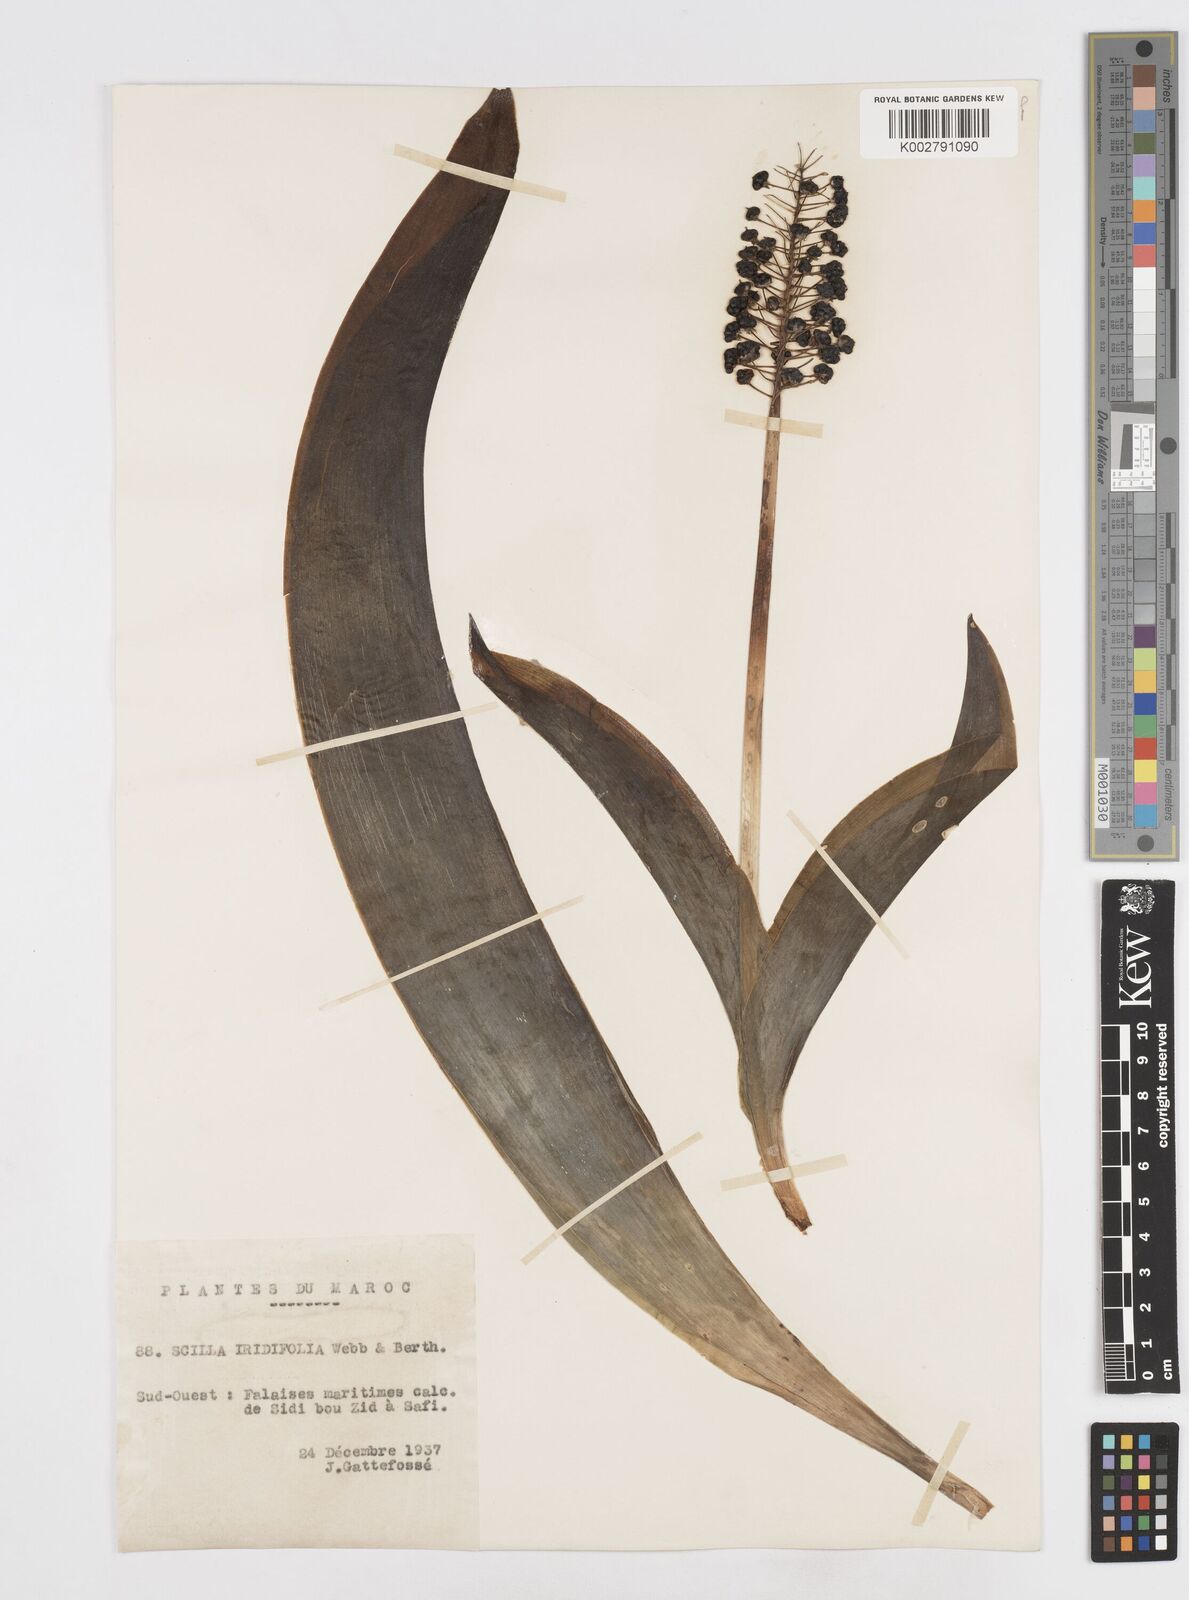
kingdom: Plantae
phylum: Tracheophyta
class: Liliopsida
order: Asparagales
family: Asparagaceae
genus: Scilla
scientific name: Scilla latifolia
